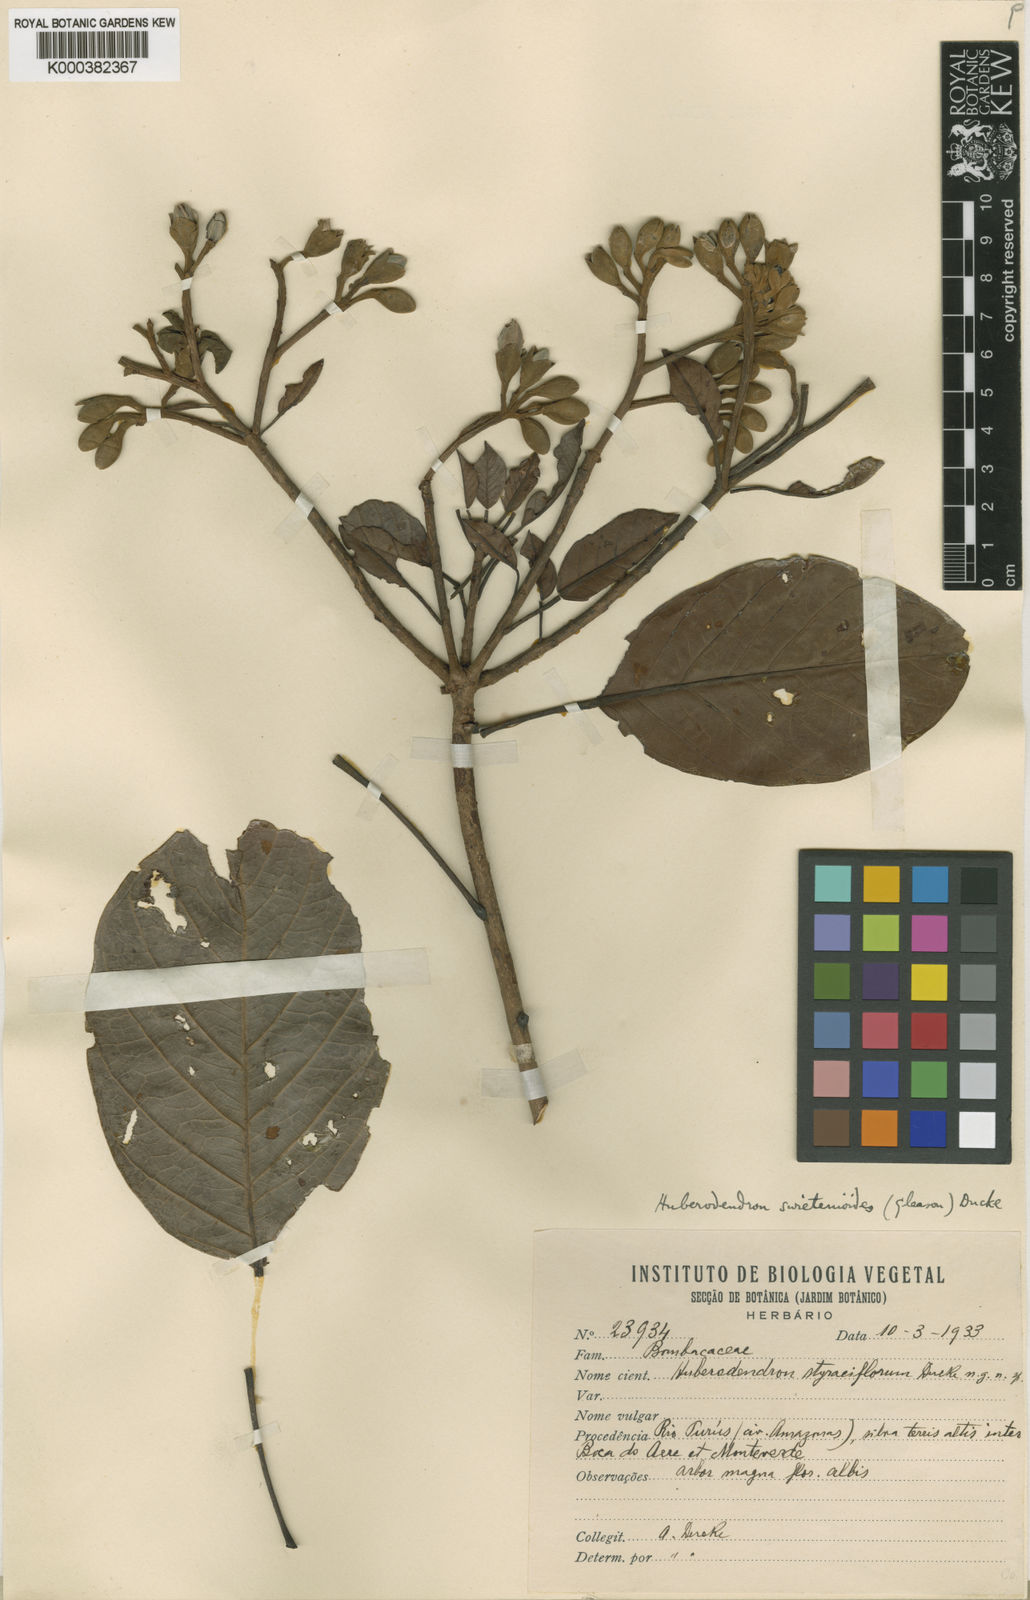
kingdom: Plantae
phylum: Tracheophyta
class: Magnoliopsida
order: Malvales
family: Malvaceae
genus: Huberodendron
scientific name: Huberodendron swietenioides
